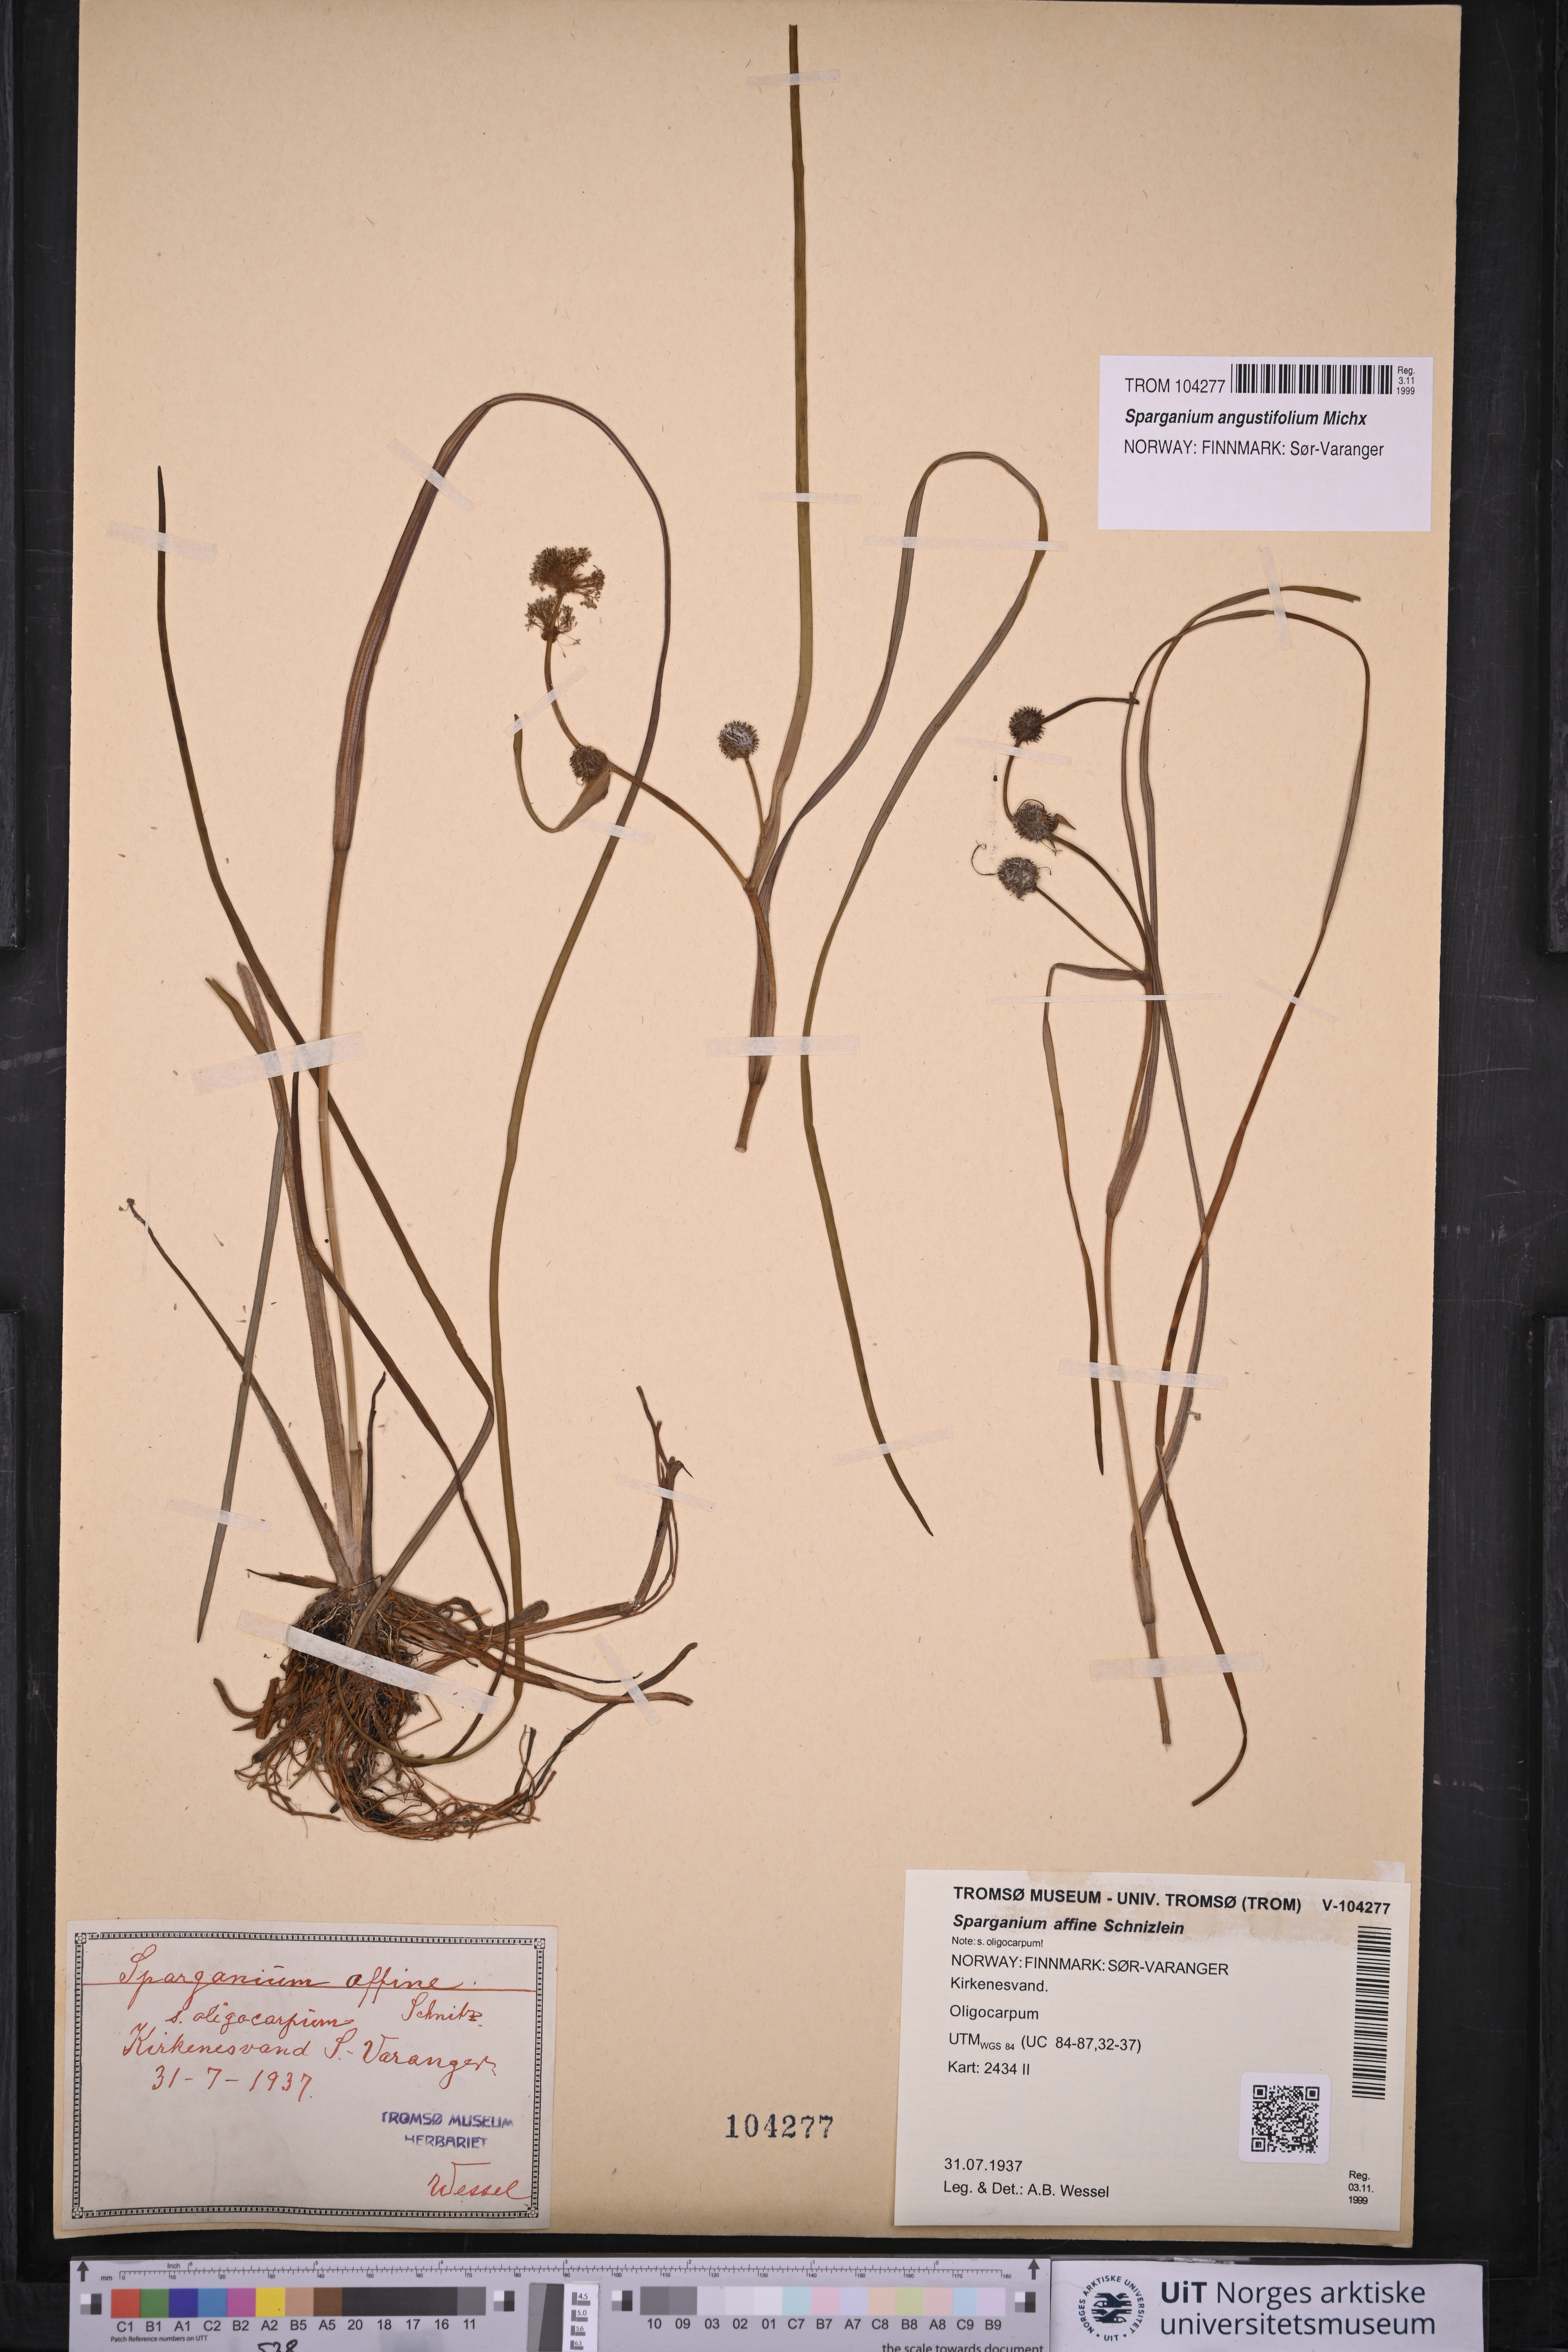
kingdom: Plantae
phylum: Tracheophyta
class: Liliopsida
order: Poales
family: Typhaceae
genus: Sparganium
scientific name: Sparganium angustifolium
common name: Floating bur-reed
